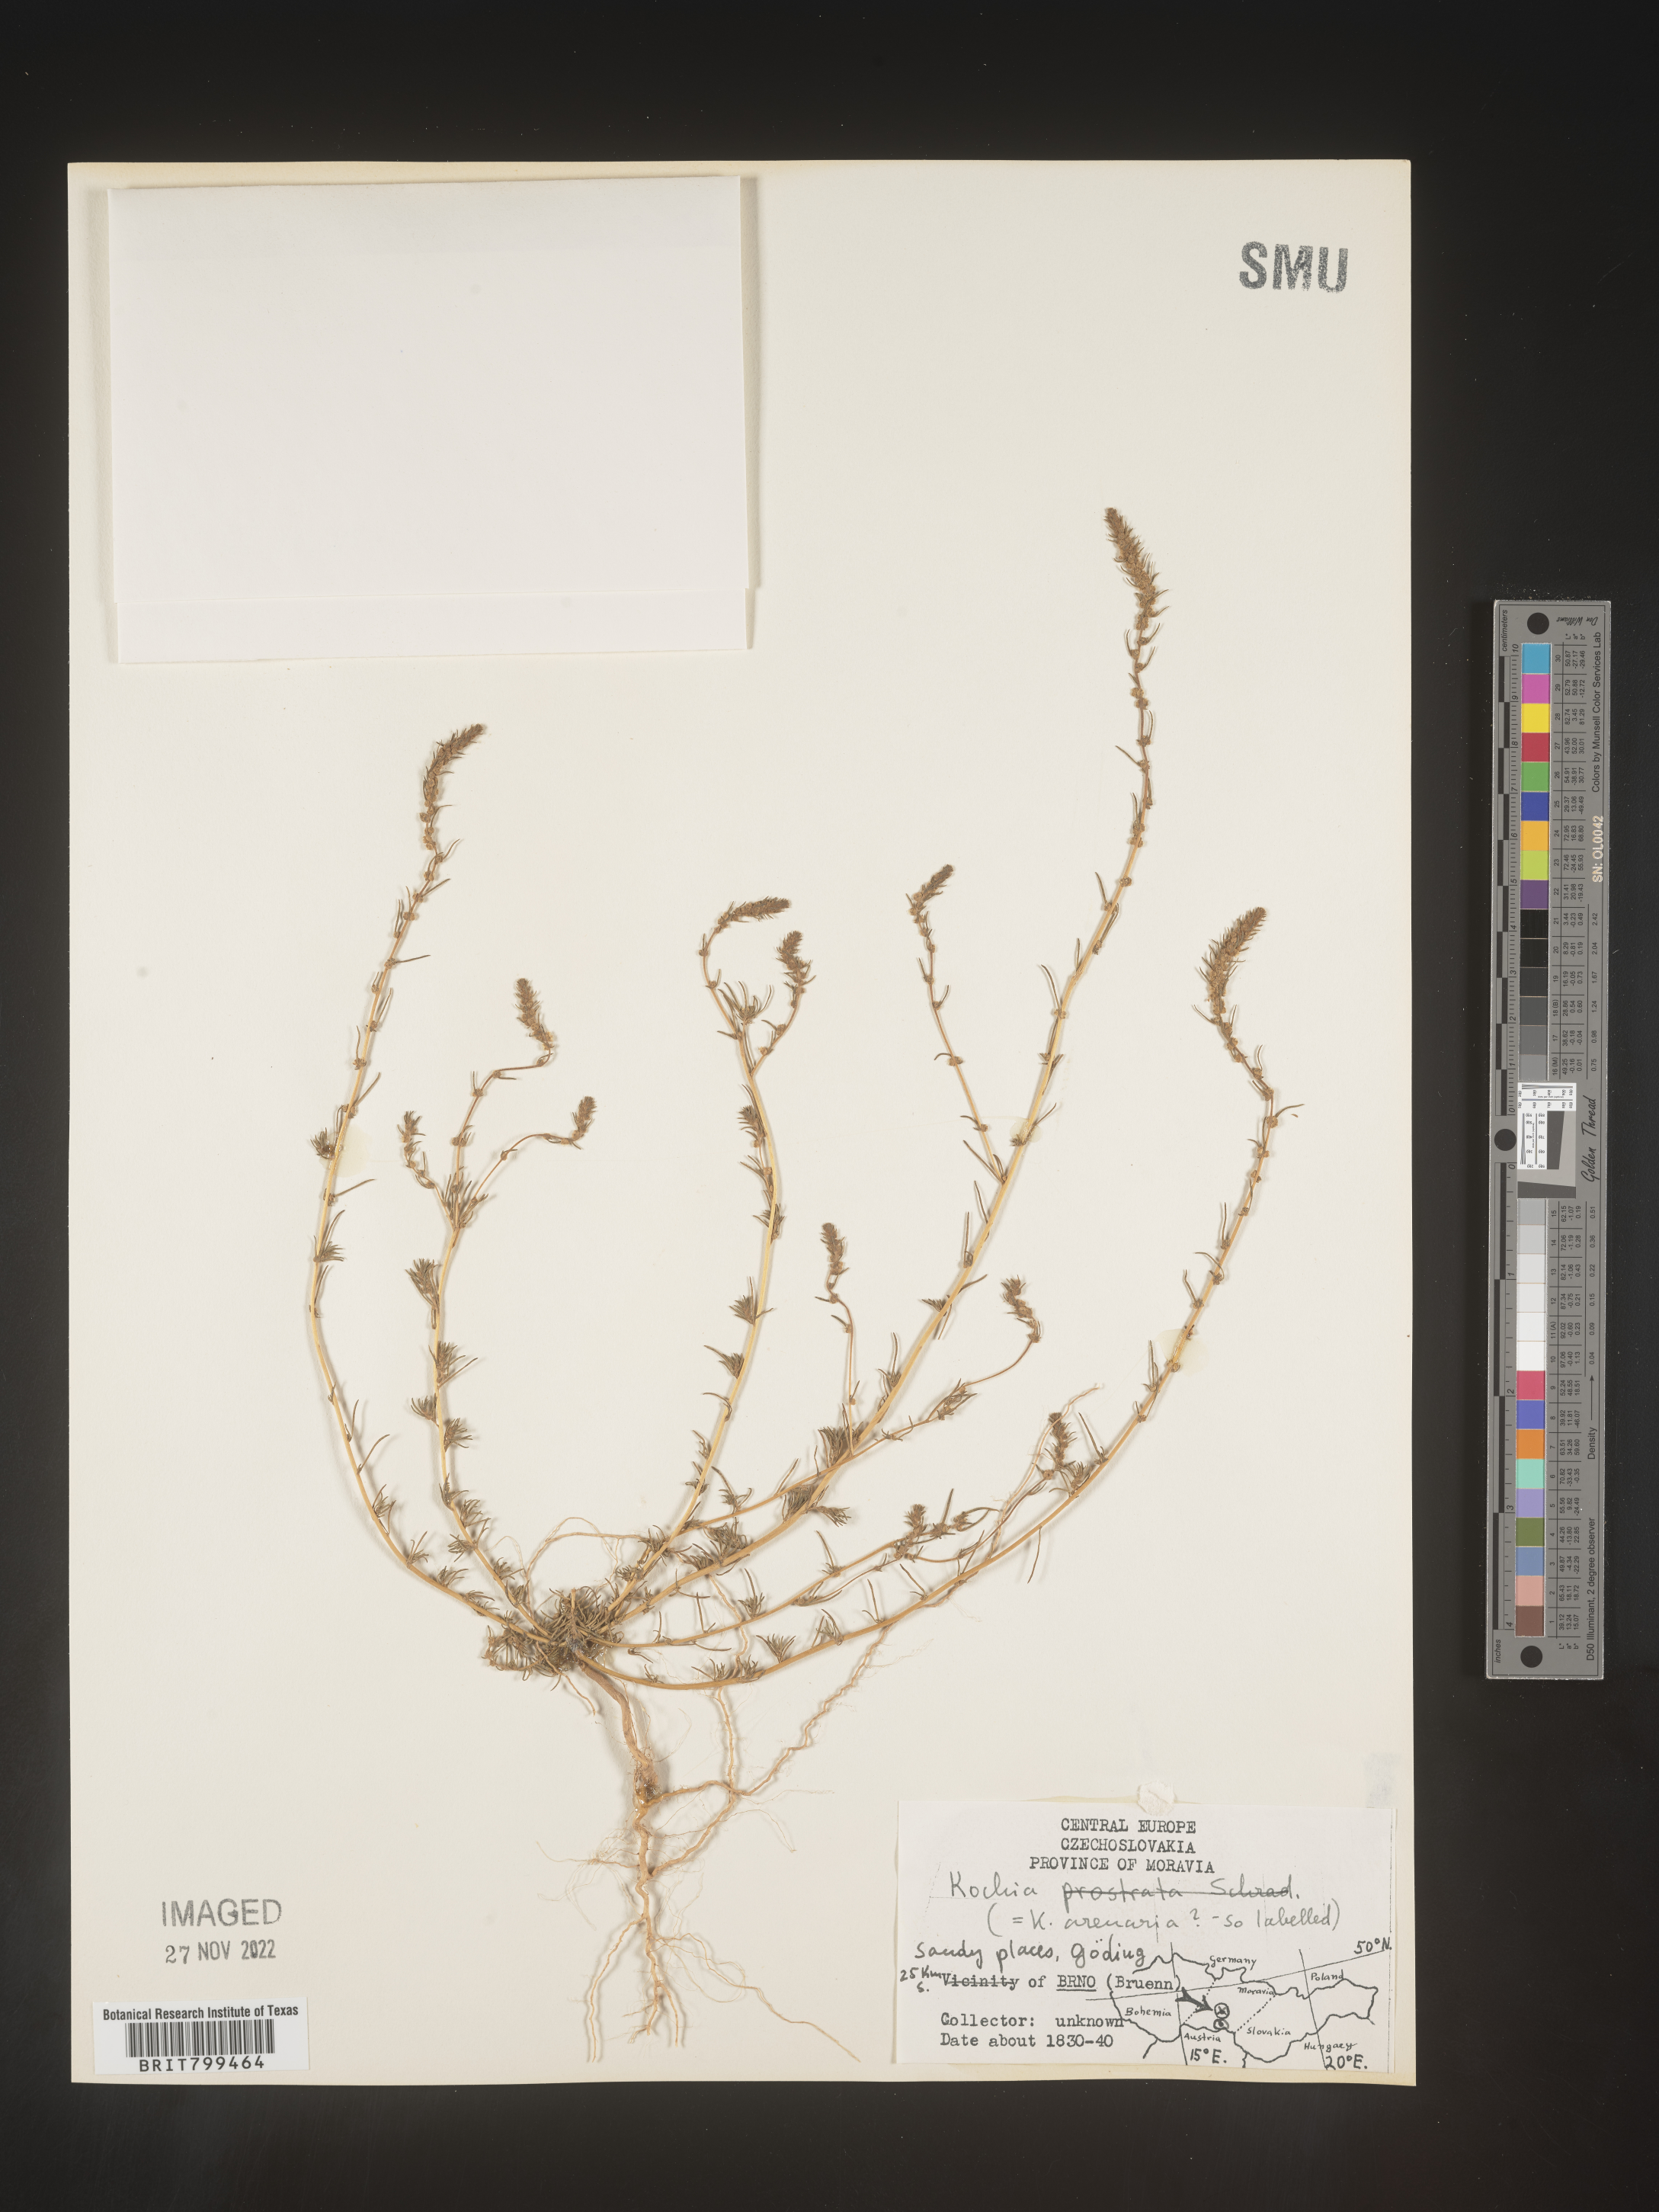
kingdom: Plantae
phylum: Tracheophyta
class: Magnoliopsida
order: Caryophyllales
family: Amaranthaceae
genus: Bassia
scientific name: Bassia
